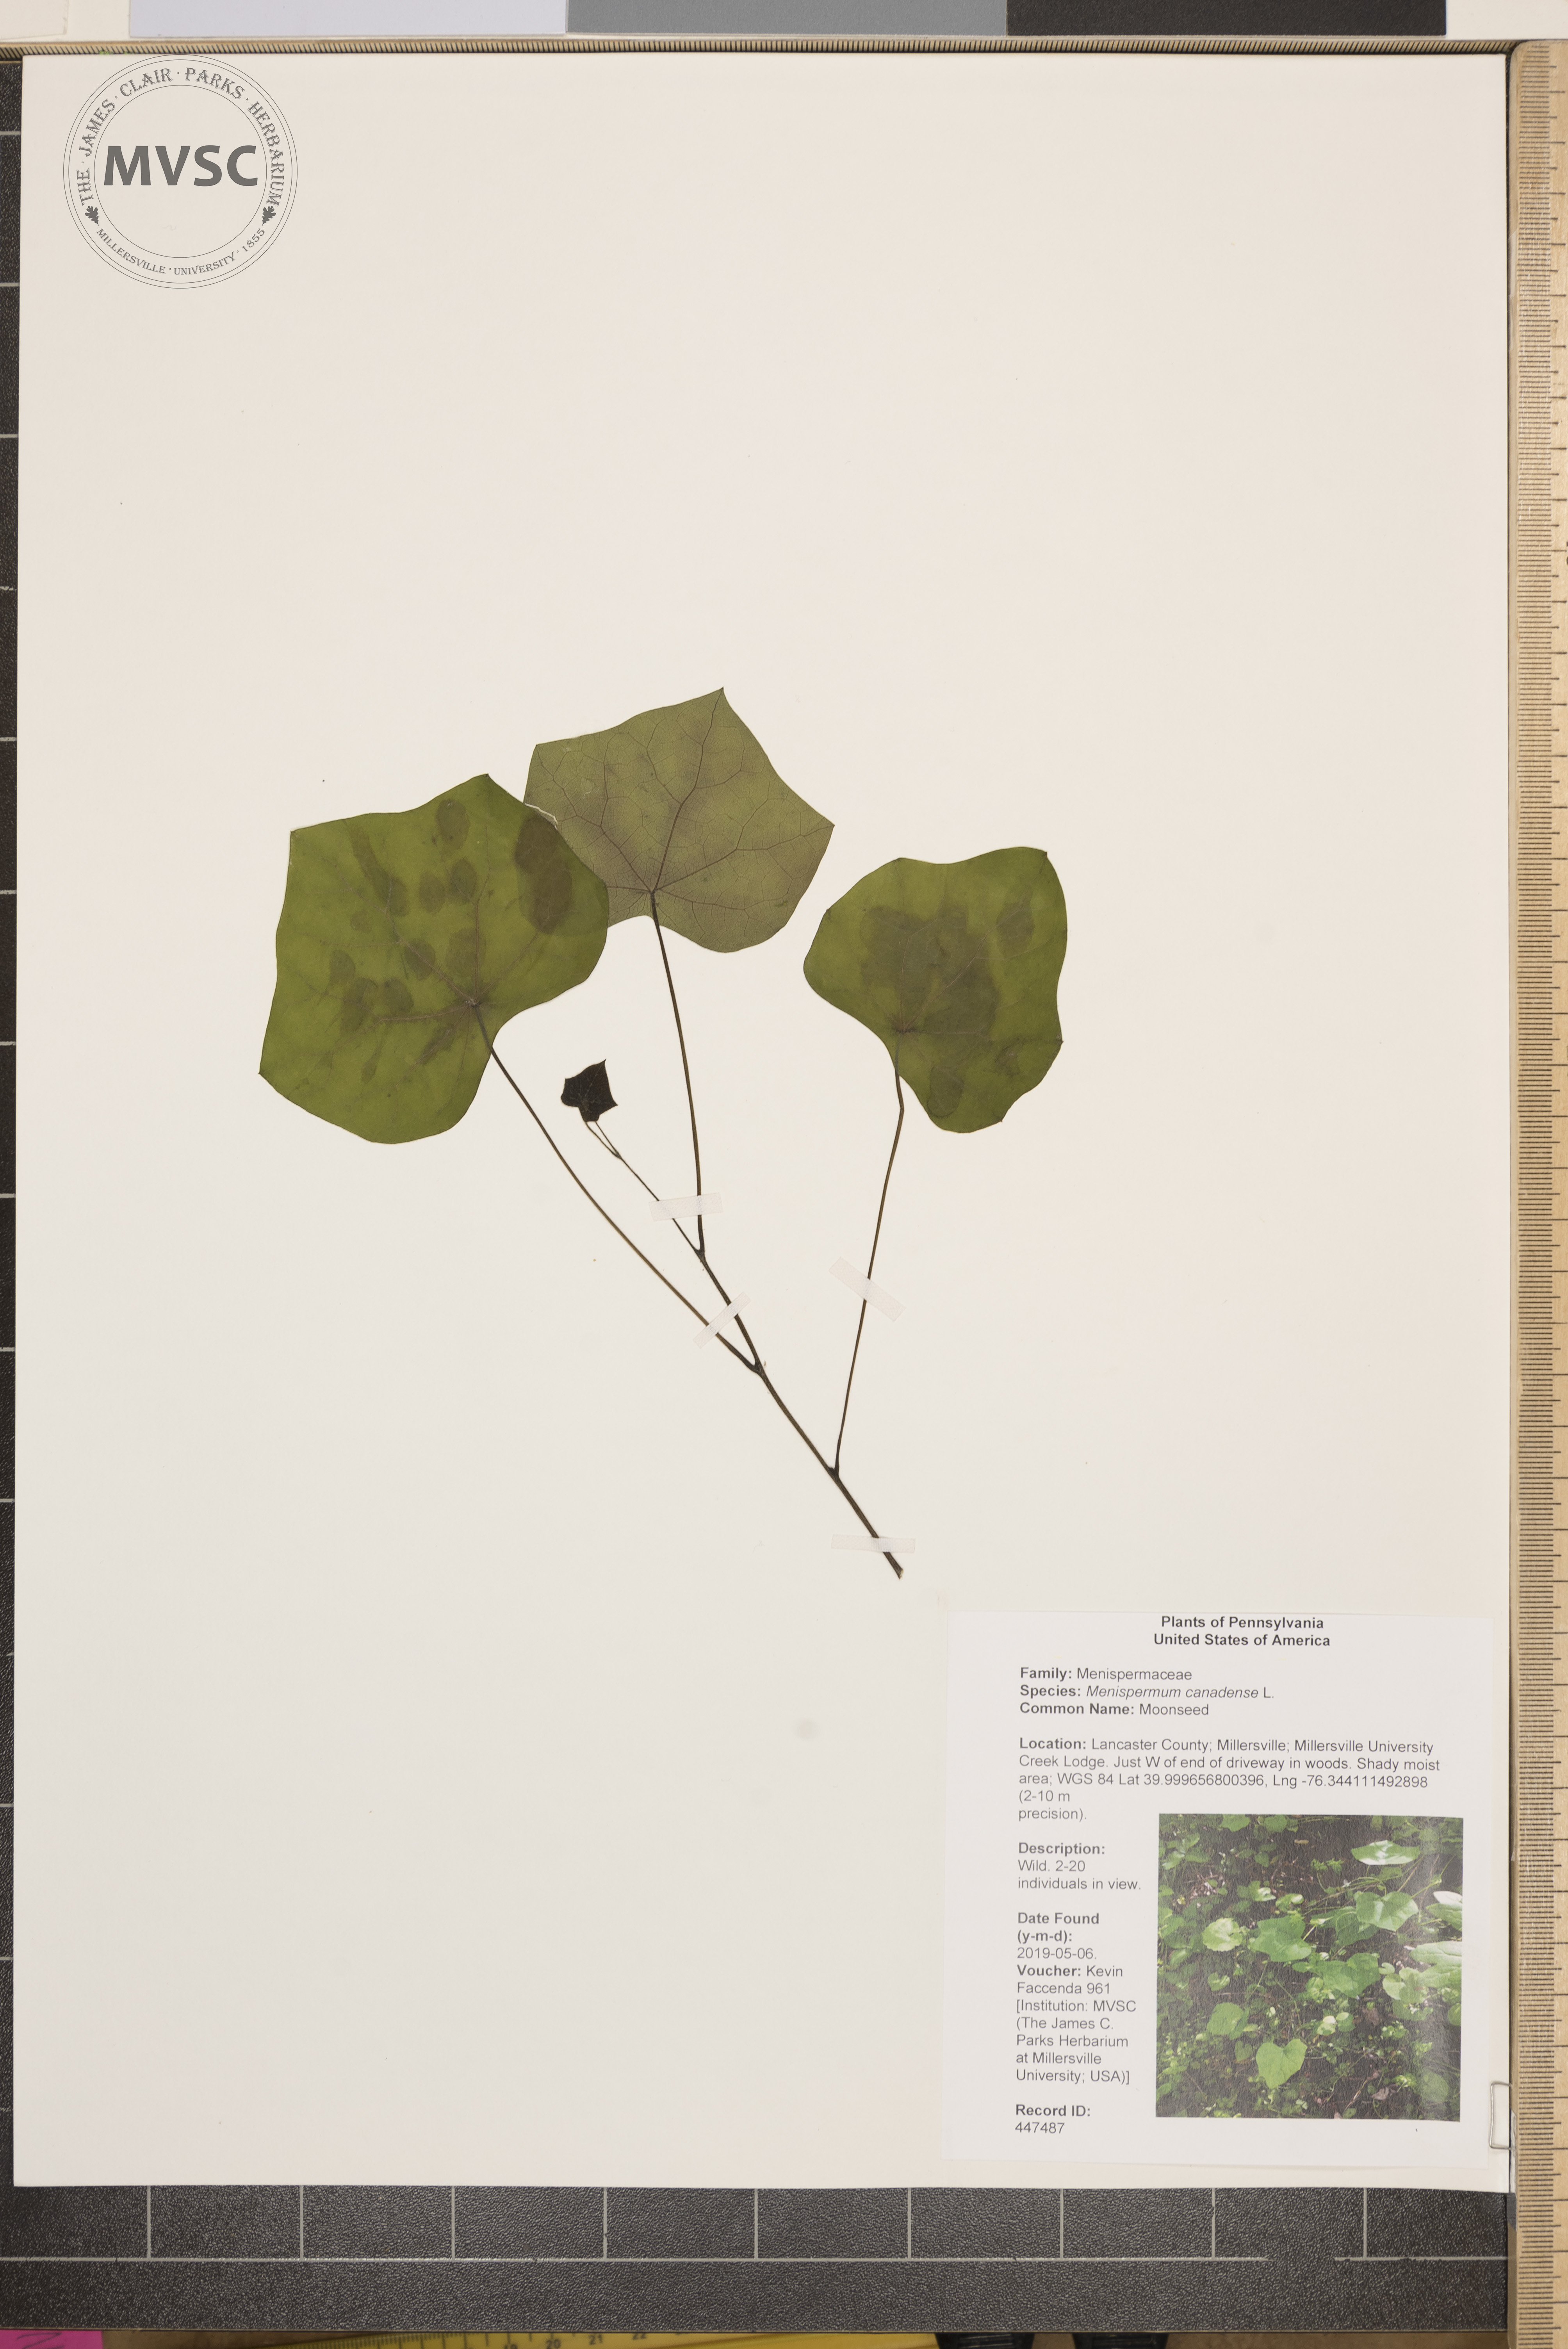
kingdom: Plantae
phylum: Tracheophyta
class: Magnoliopsida
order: Ranunculales
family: Menispermaceae
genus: Menispermum
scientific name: Menispermum canadense
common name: Moonseed
